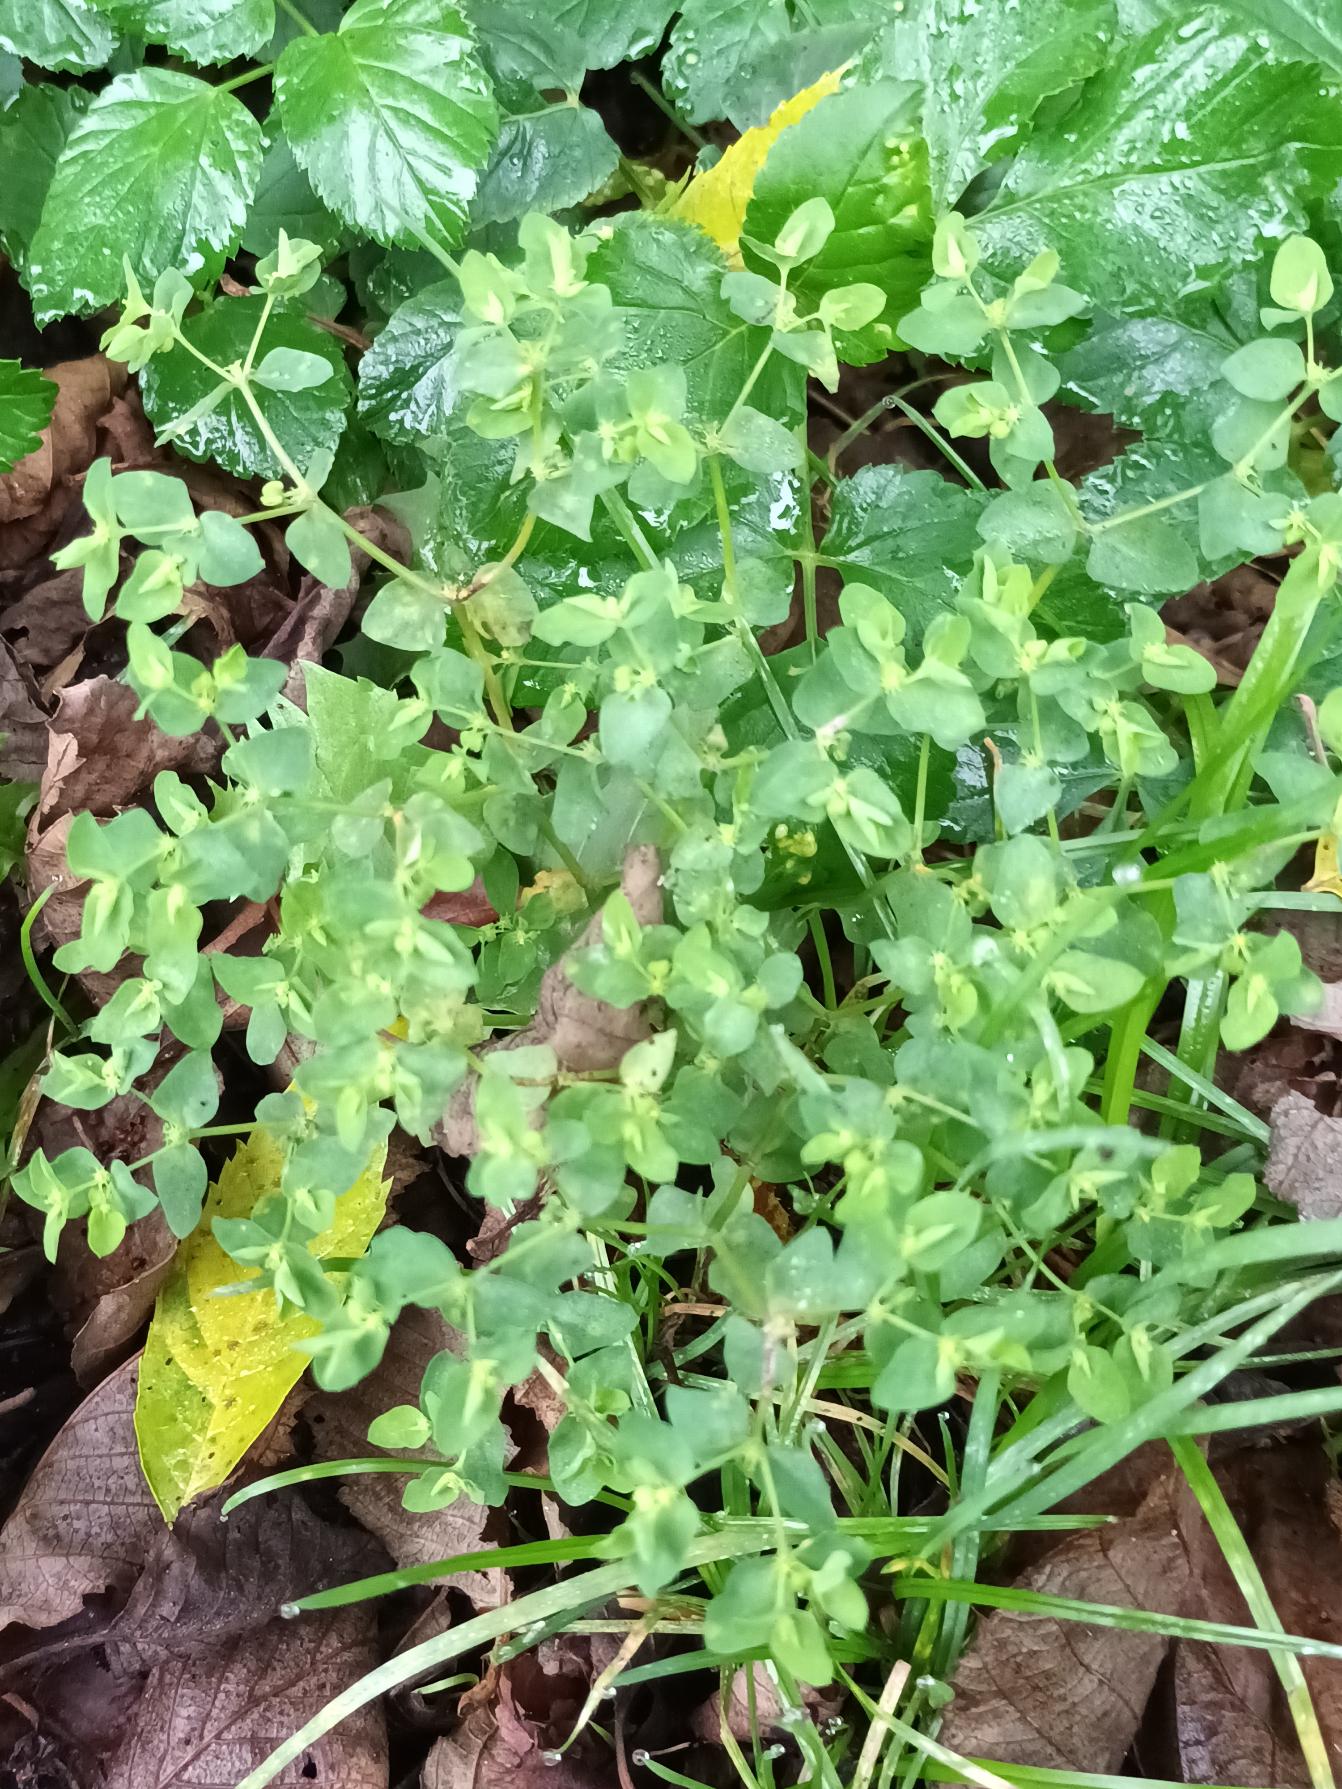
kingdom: Plantae
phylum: Tracheophyta
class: Magnoliopsida
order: Malpighiales
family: Euphorbiaceae
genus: Euphorbia
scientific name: Euphorbia peplus
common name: Gaffel-vortemælk
